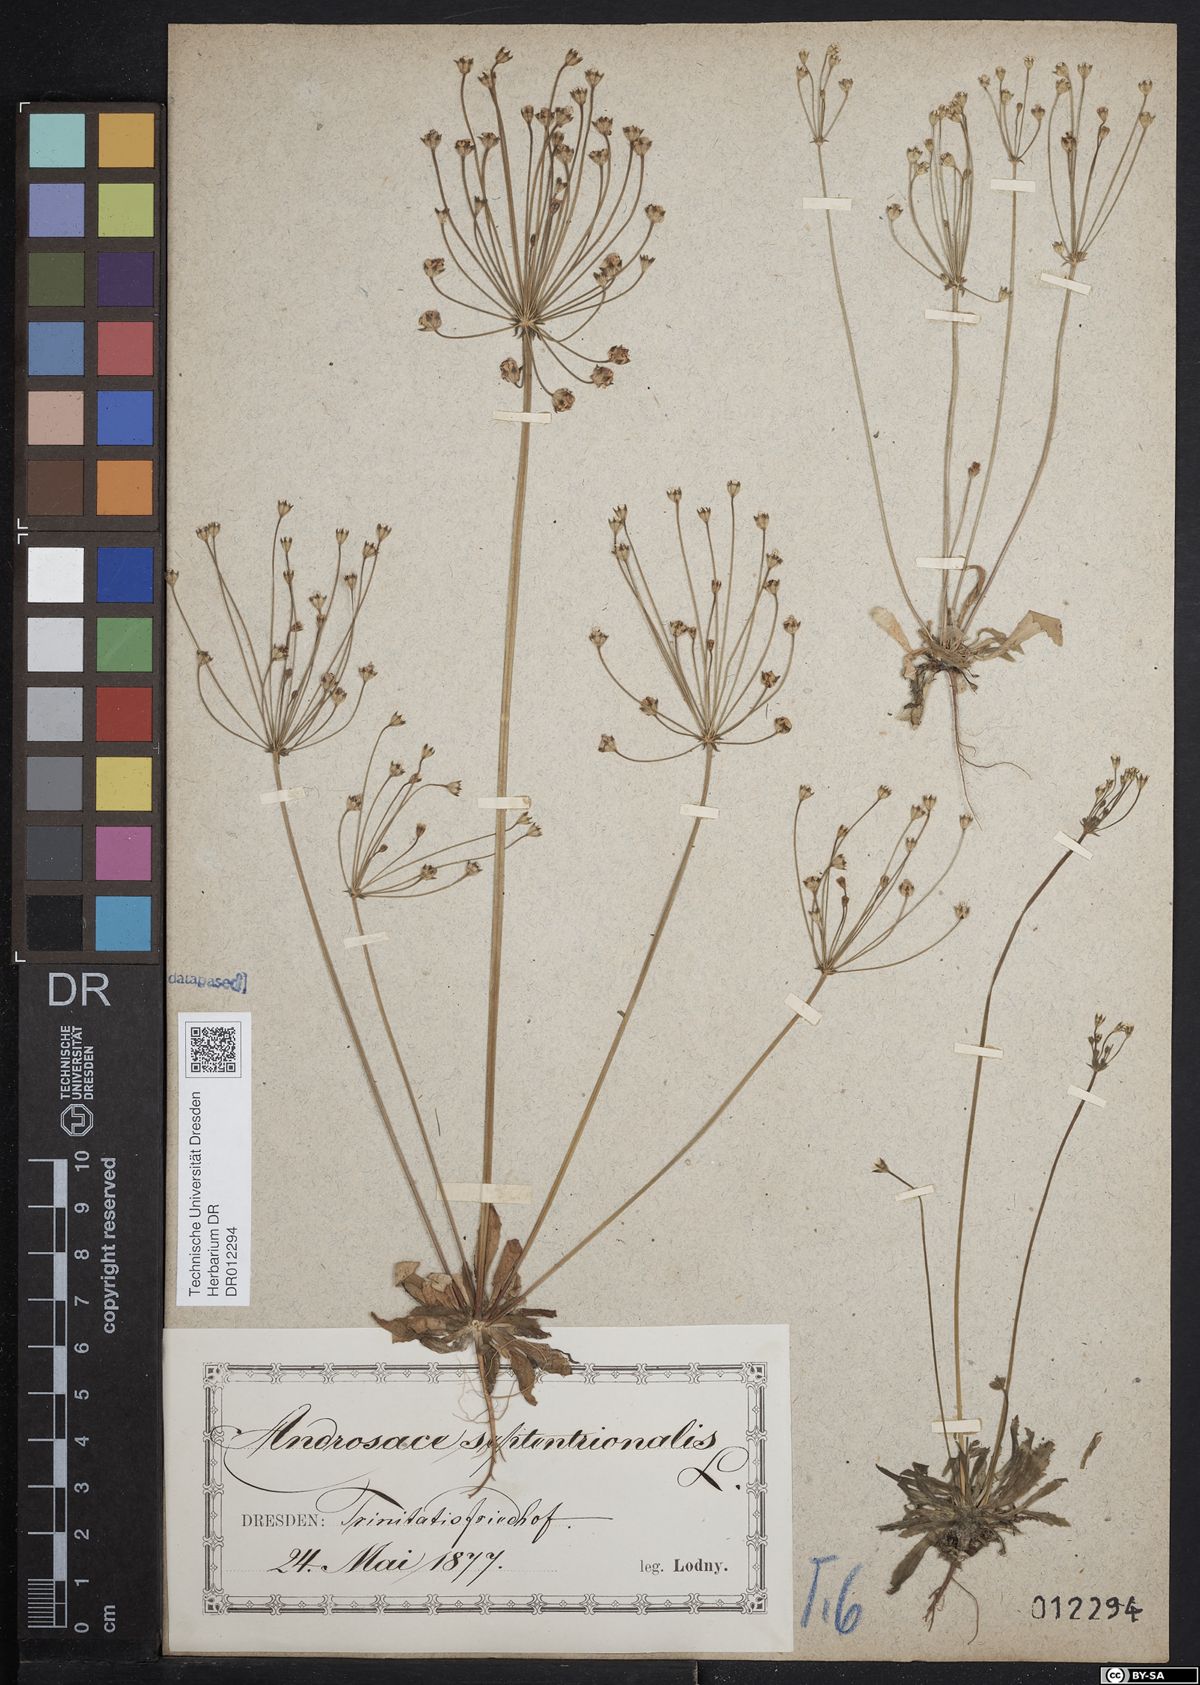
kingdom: Plantae
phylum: Tracheophyta
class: Magnoliopsida
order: Ericales
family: Primulaceae
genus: Androsace
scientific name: Androsace septentrionalis
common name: Hairy northern fairy-candelabra
